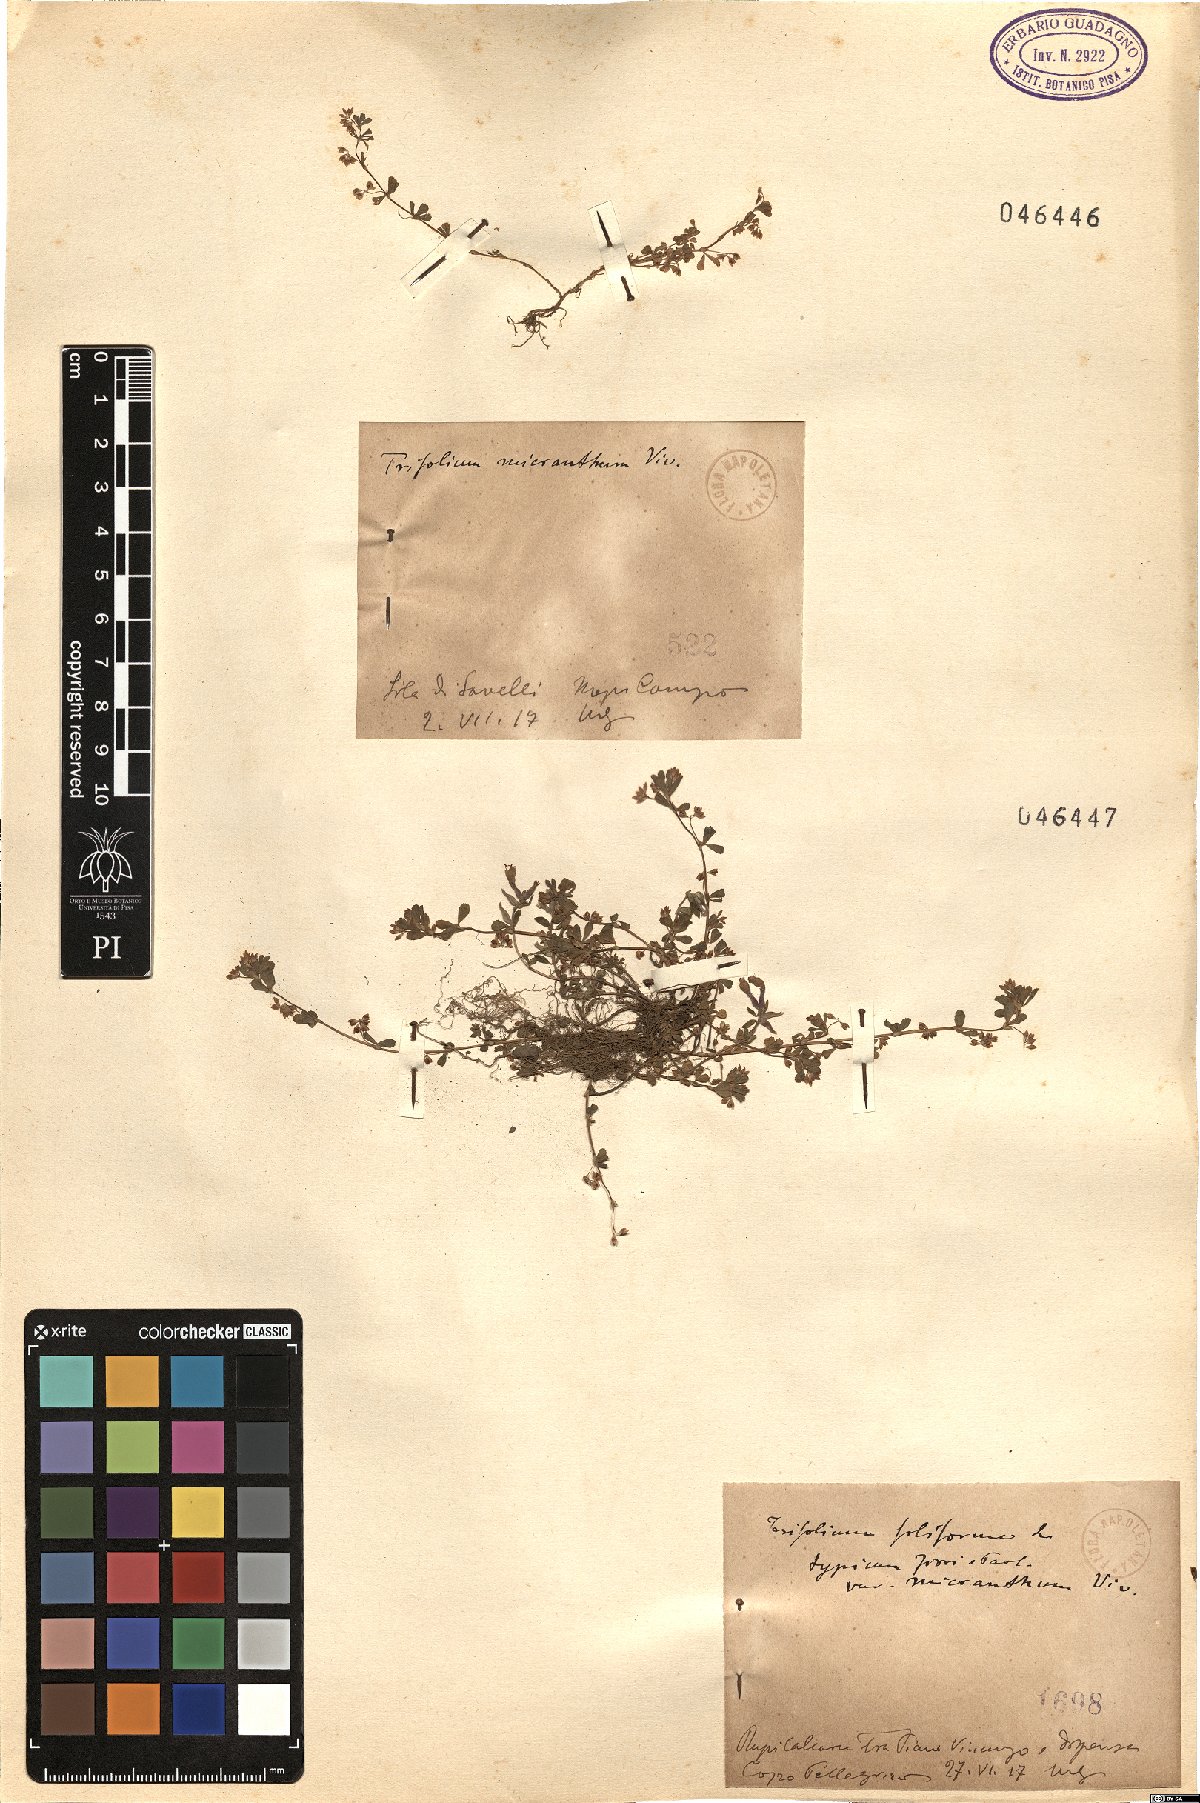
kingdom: Plantae
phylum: Tracheophyta
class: Magnoliopsida
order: Fabales
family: Fabaceae
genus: Trifolium
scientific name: Trifolium micranthum
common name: Slender trefoil
